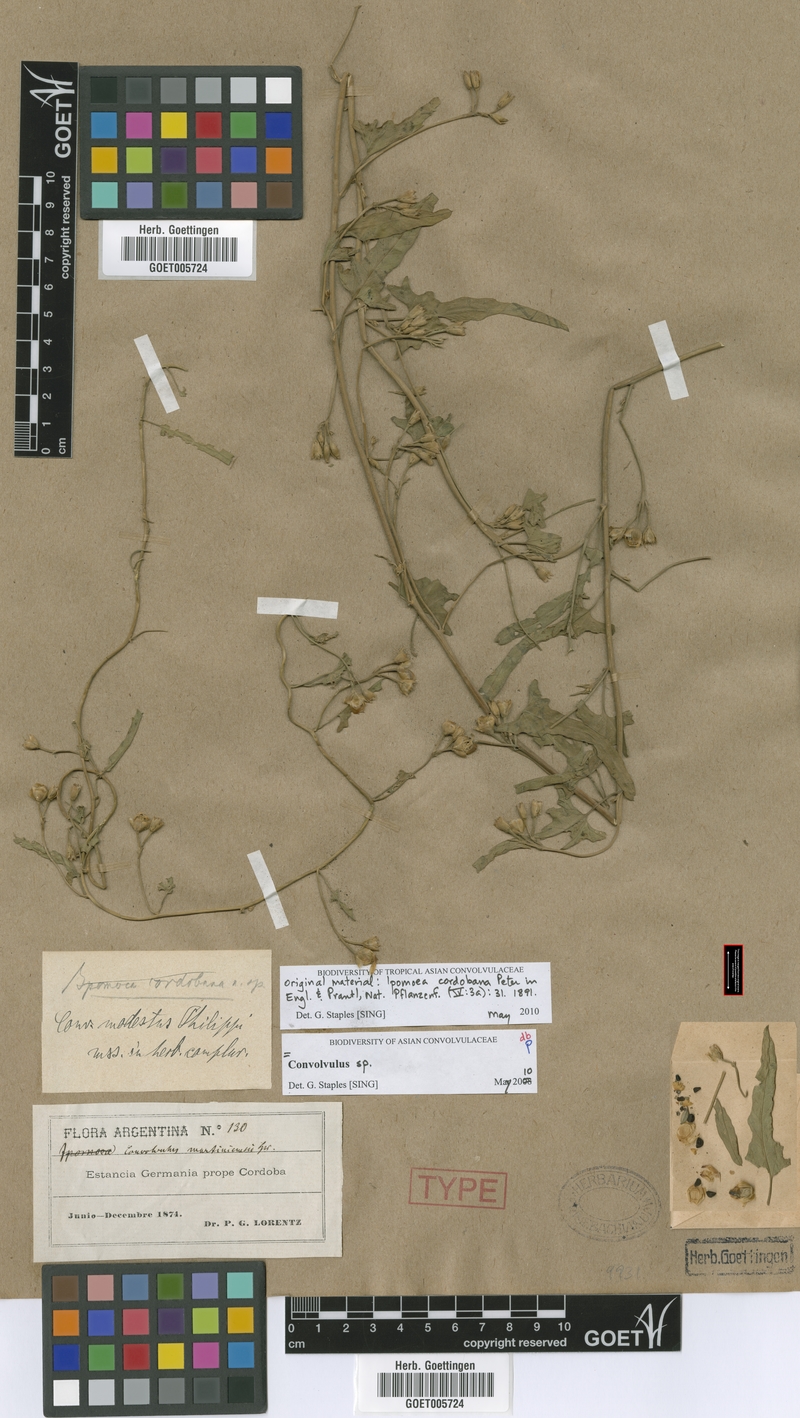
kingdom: Plantae
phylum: Tracheophyta
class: Magnoliopsida
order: Solanales
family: Convolvulaceae
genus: Convolvulus
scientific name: Convolvulus bonariensis
